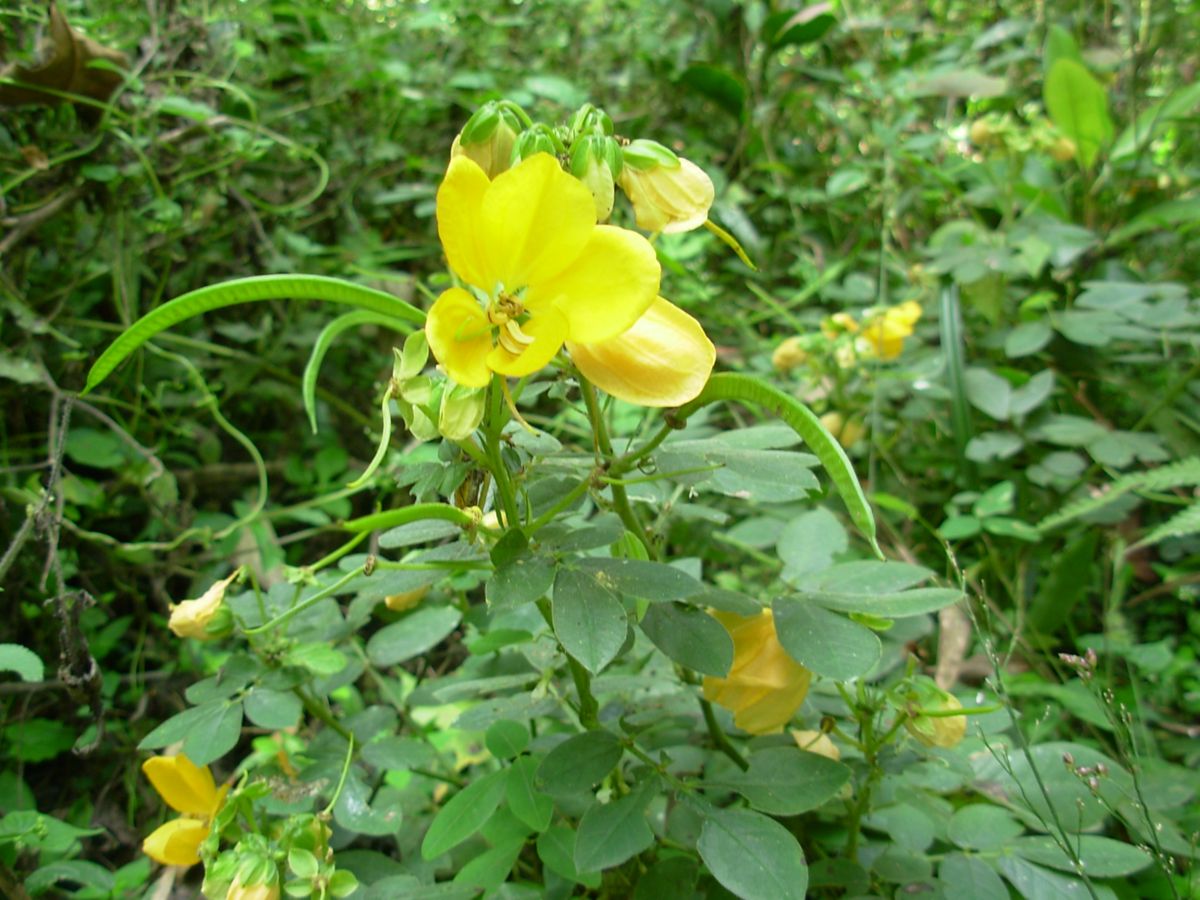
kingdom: Plantae
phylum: Tracheophyta
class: Magnoliopsida
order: Fabales
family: Fabaceae
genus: Senna
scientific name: Senna cobanensis
